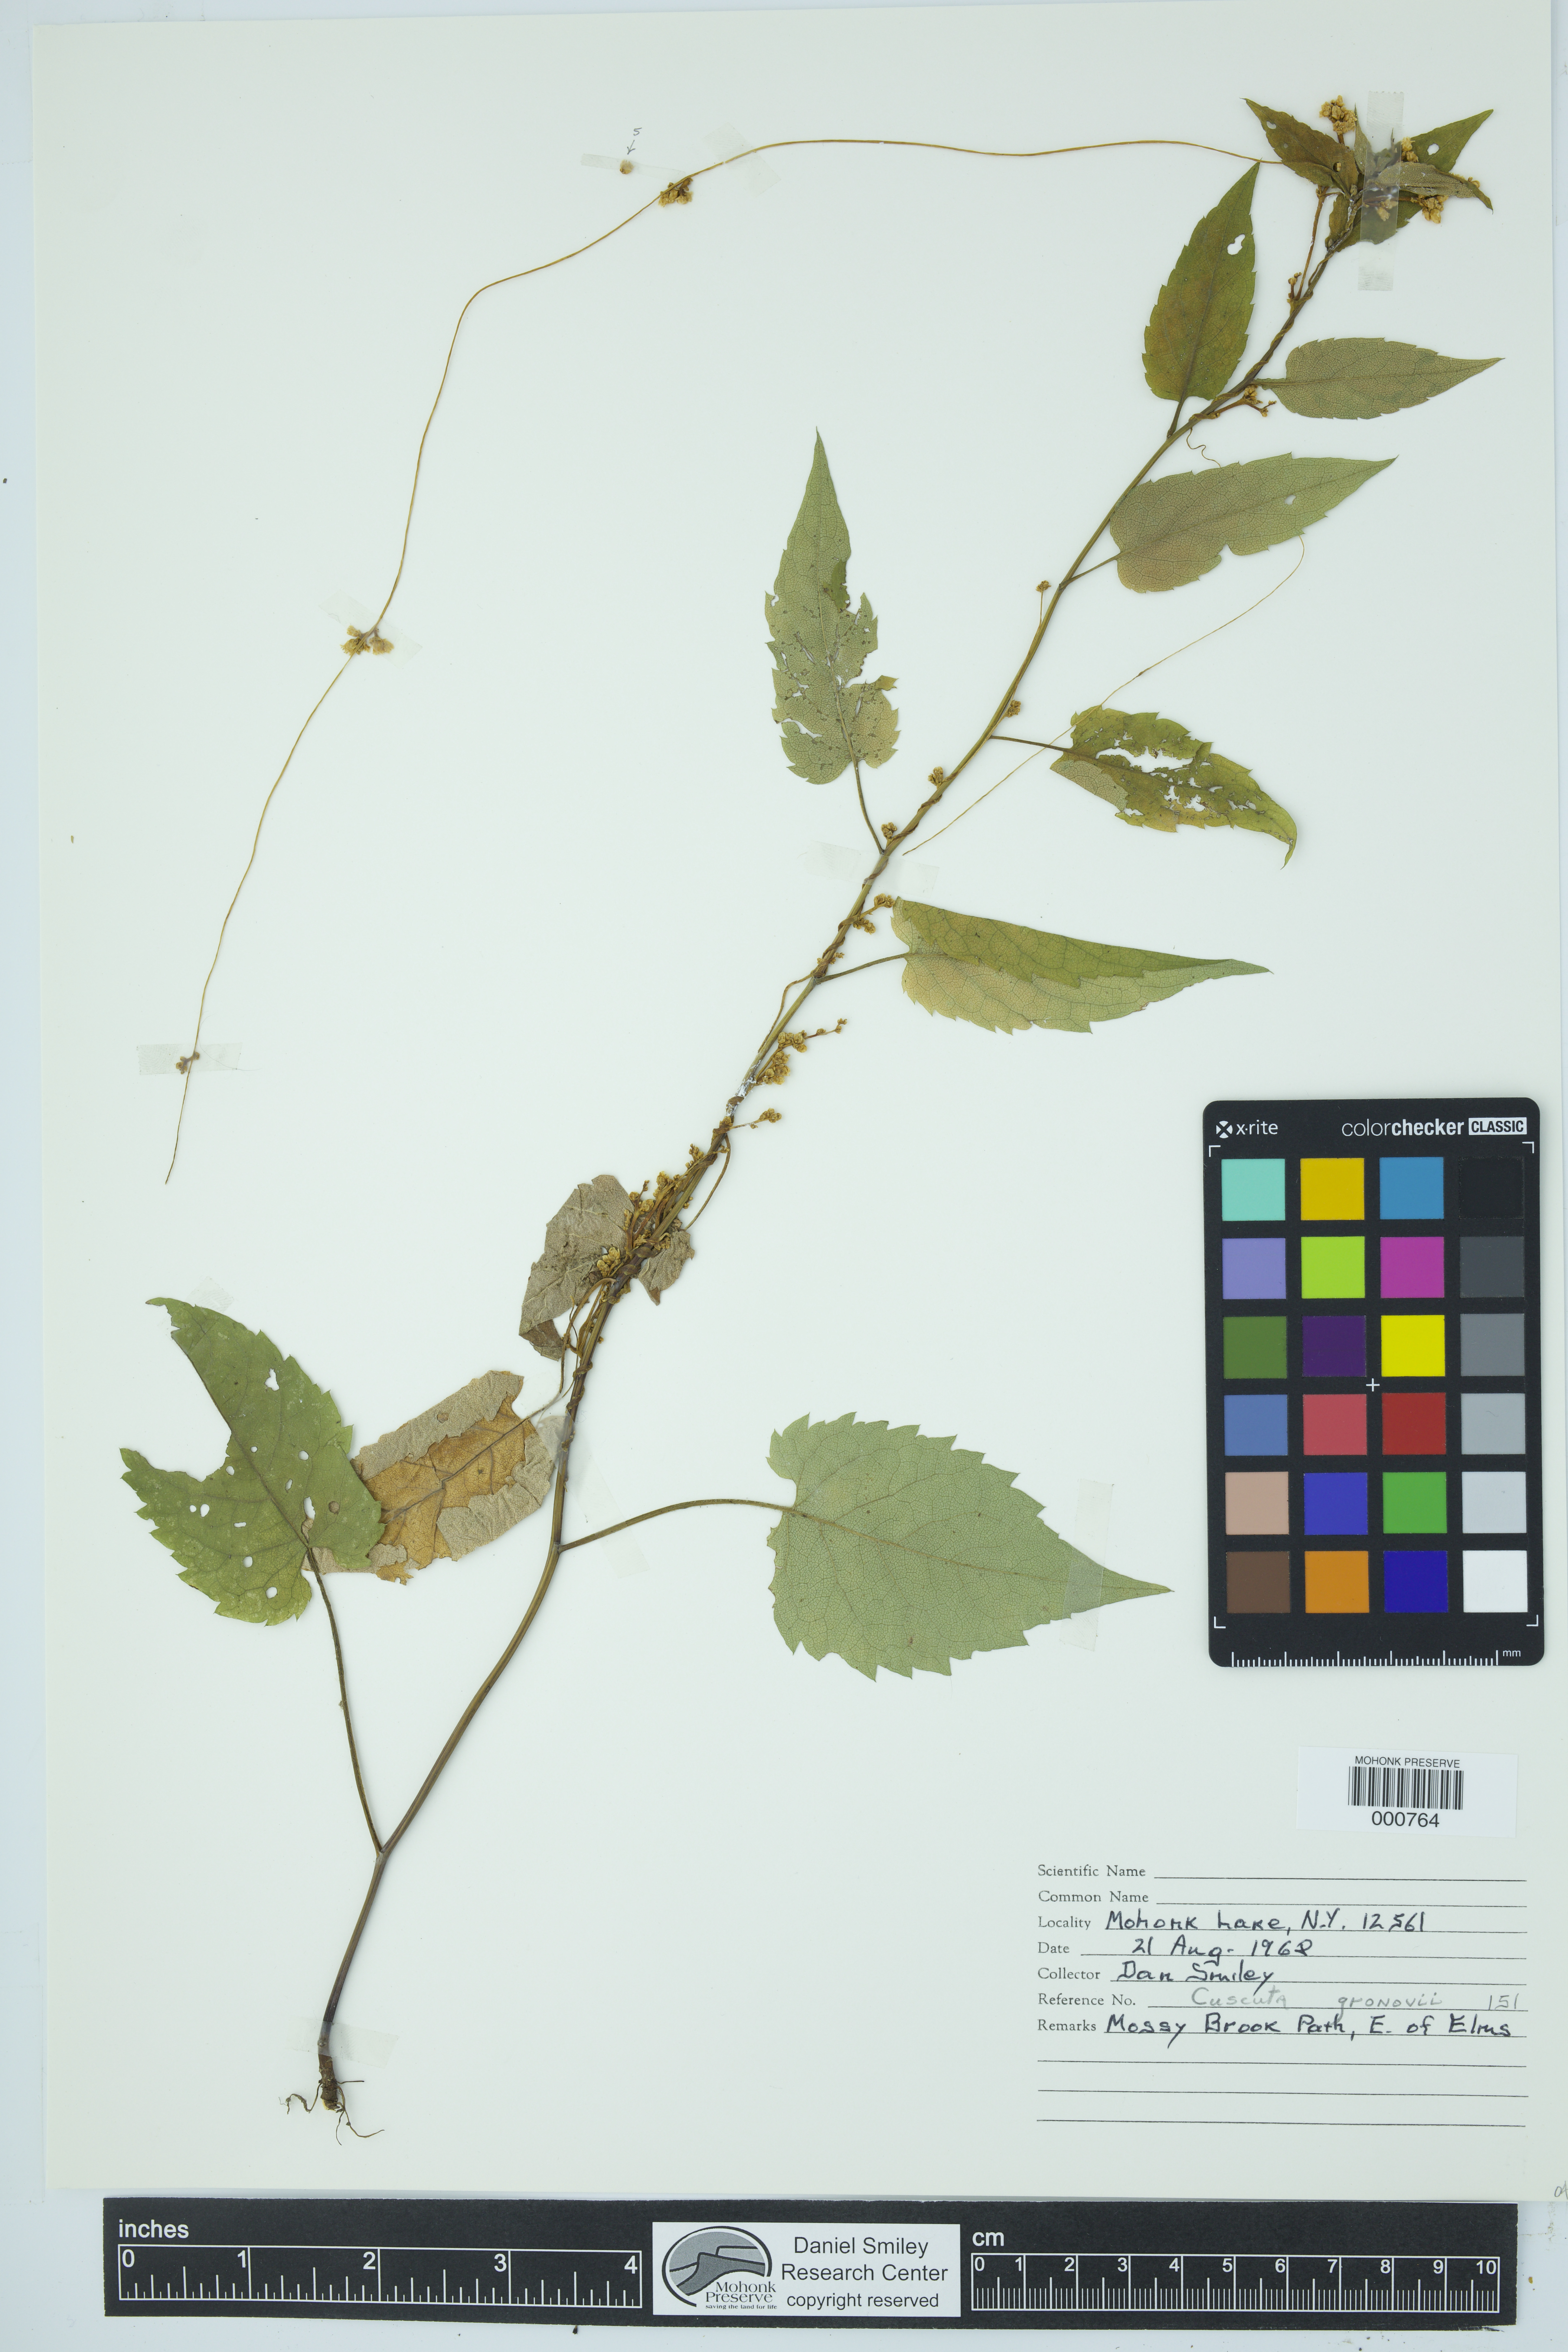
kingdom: Plantae
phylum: Tracheophyta
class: Magnoliopsida
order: Solanales
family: Convolvulaceae
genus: Cuscuta
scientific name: Cuscuta gronovii
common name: Common dodder
